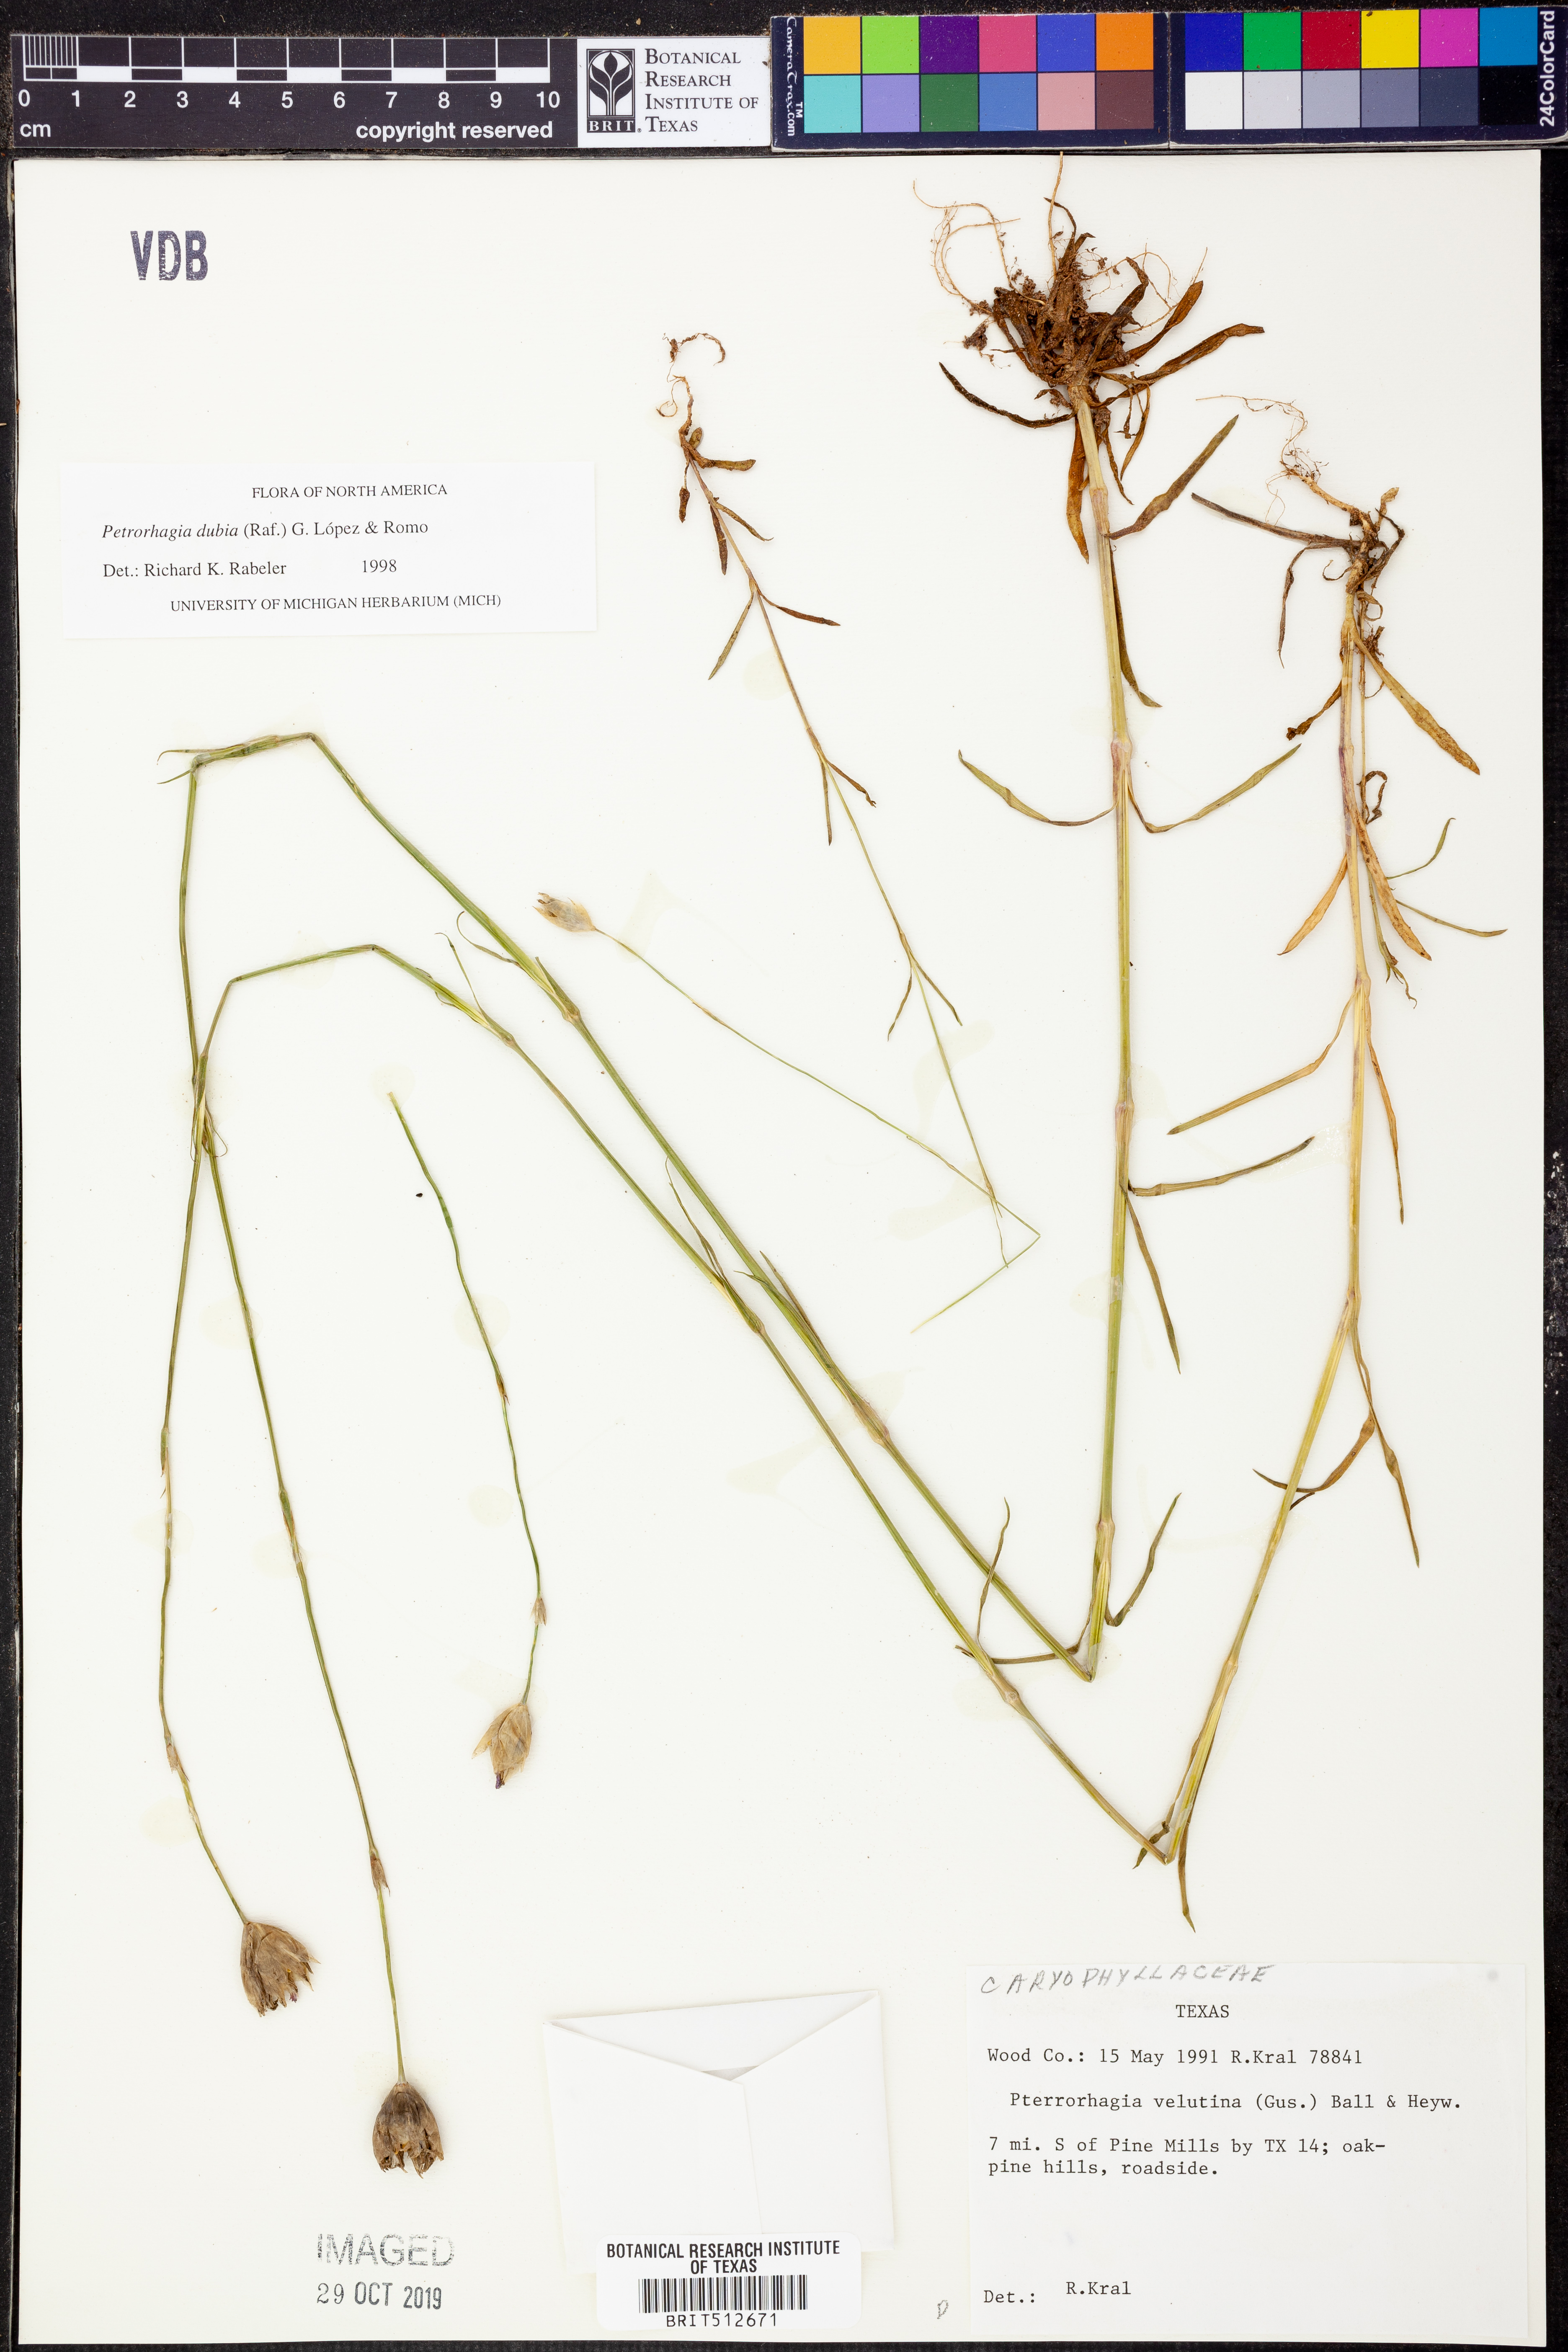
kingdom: Plantae
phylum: Tracheophyta
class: Magnoliopsida
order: Caryophyllales
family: Caryophyllaceae
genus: Petrorhagia
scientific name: Petrorhagia dubia
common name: Hairypink
